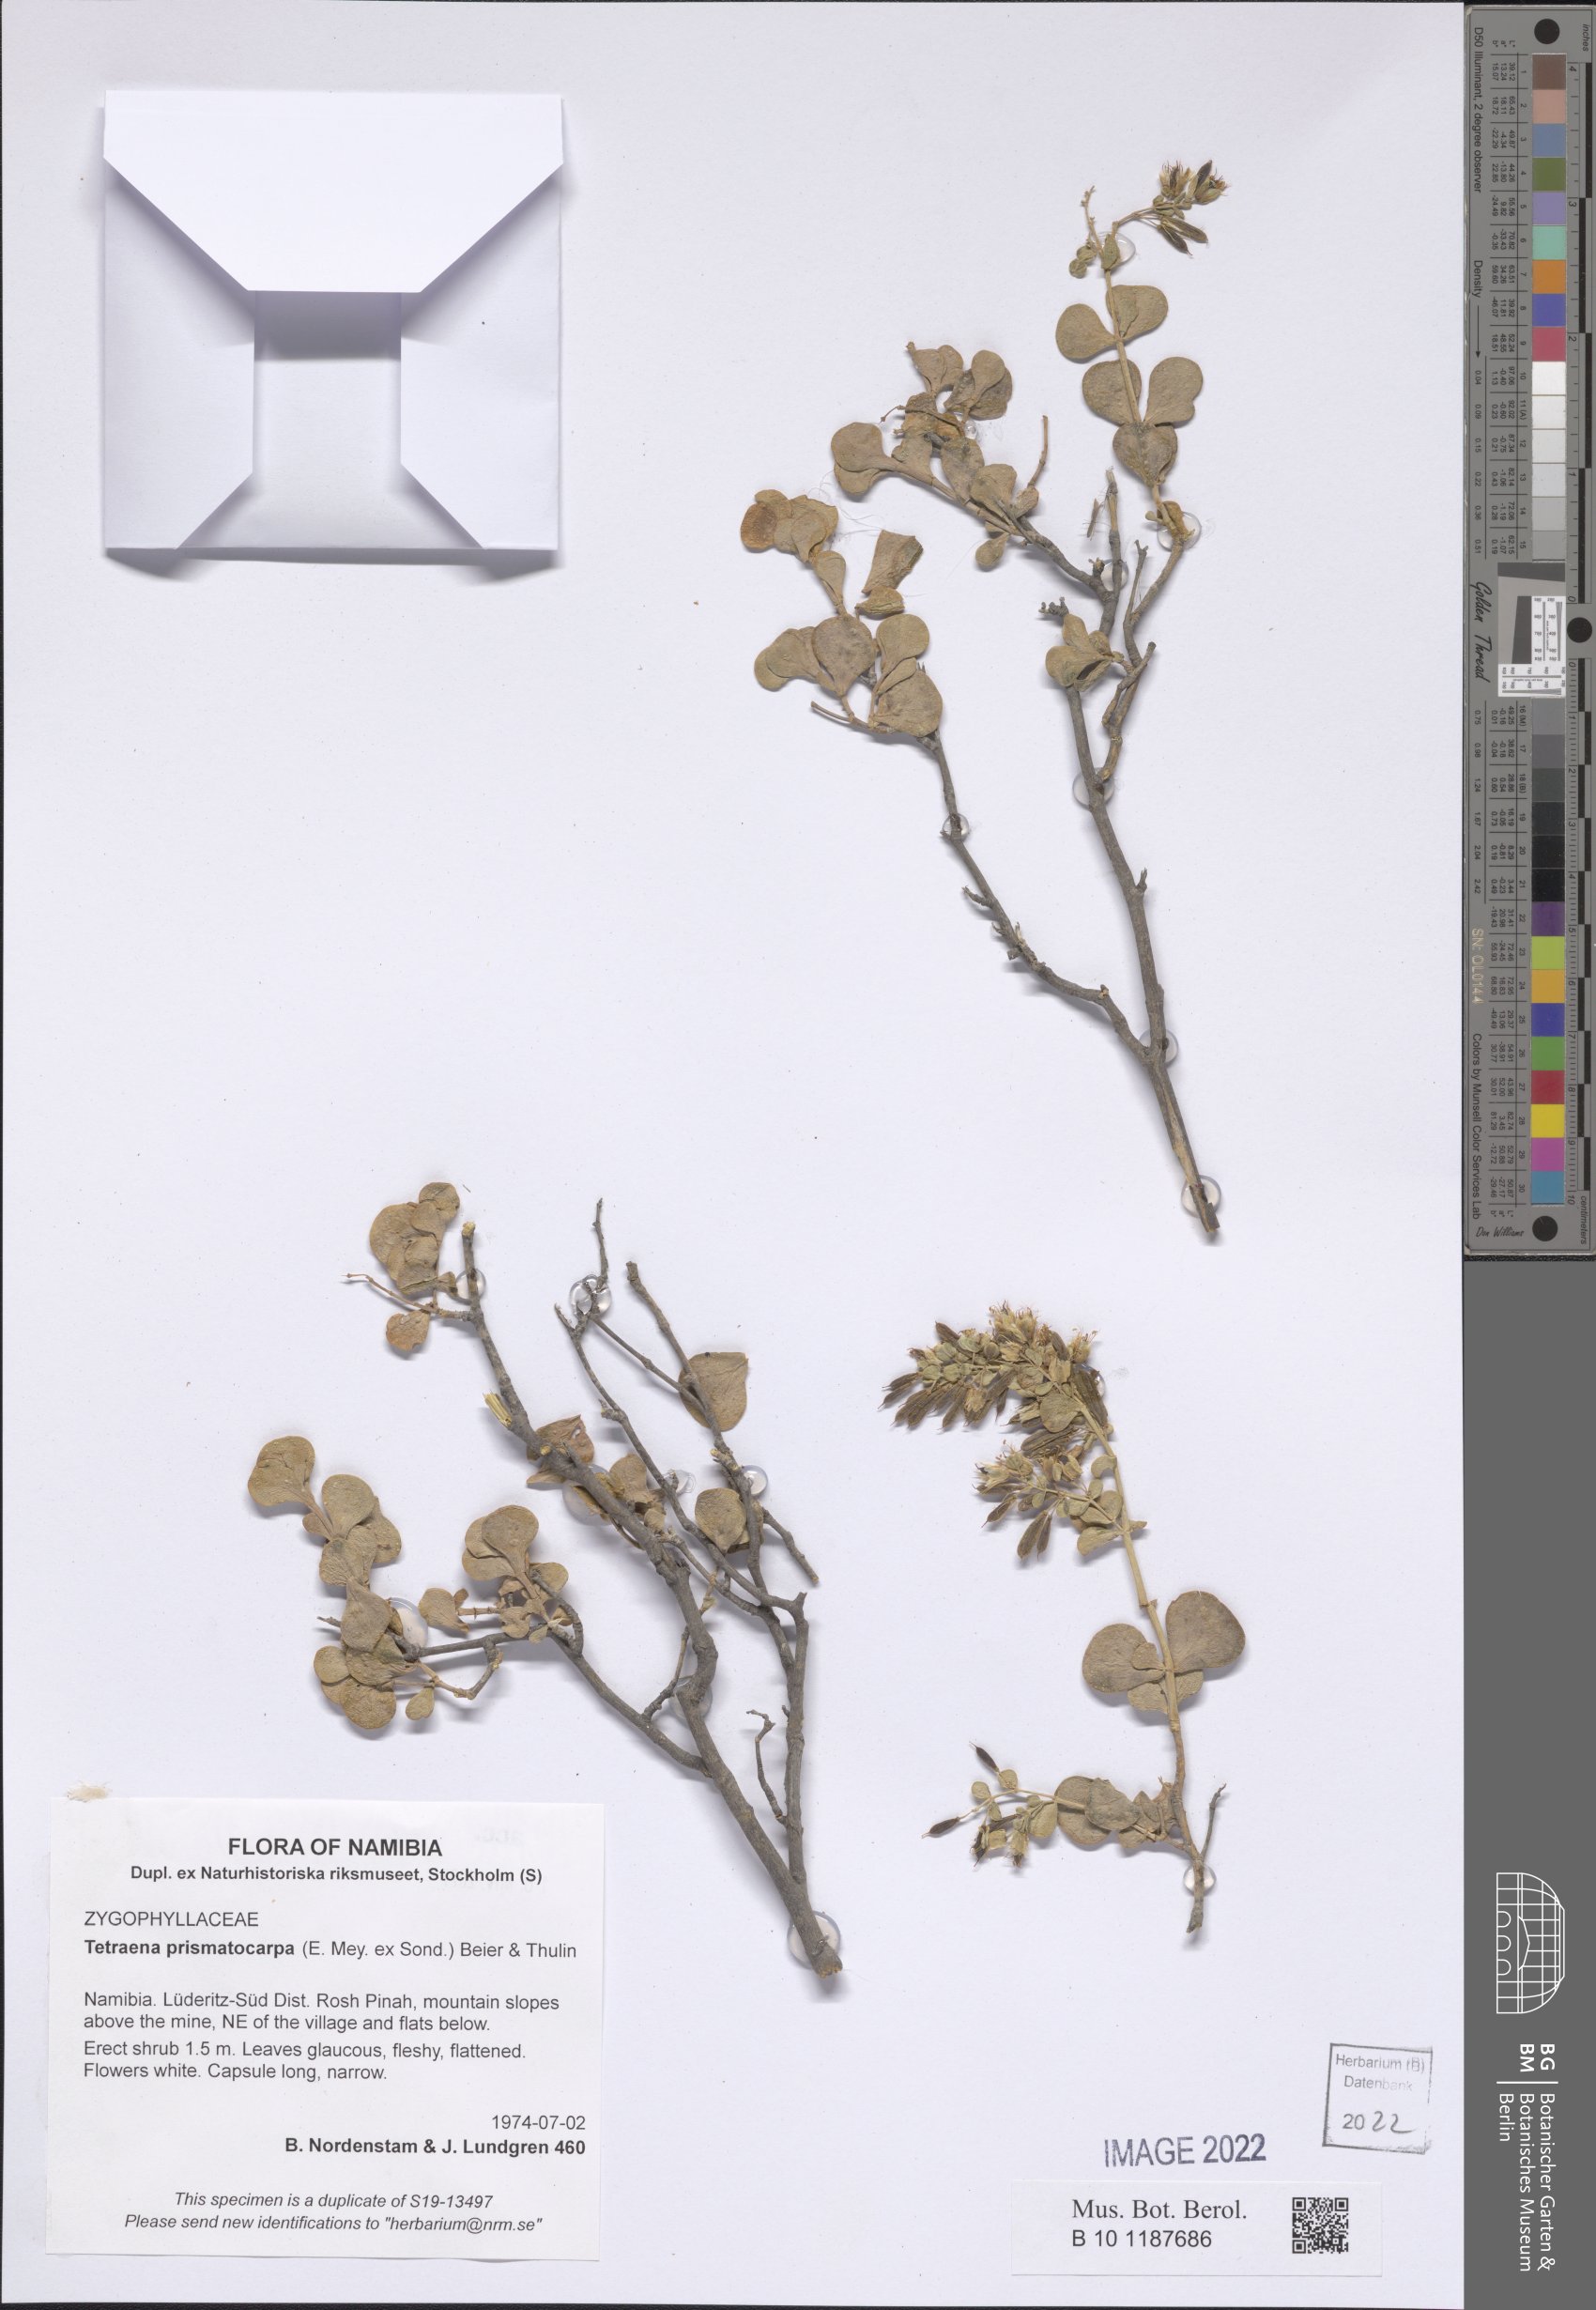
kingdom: Plantae
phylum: Tracheophyta
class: Magnoliopsida
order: Zygophyllales
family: Zygophyllaceae
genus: Tetraena
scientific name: Tetraena prismatocarpa
